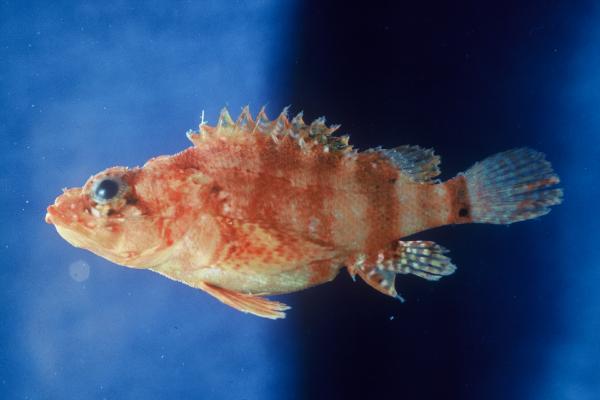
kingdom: Animalia
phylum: Chordata
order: Scorpaeniformes
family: Scorpaenidae
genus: Scorpaenodes
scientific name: Scorpaenodes arenai
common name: Messina rockfish
